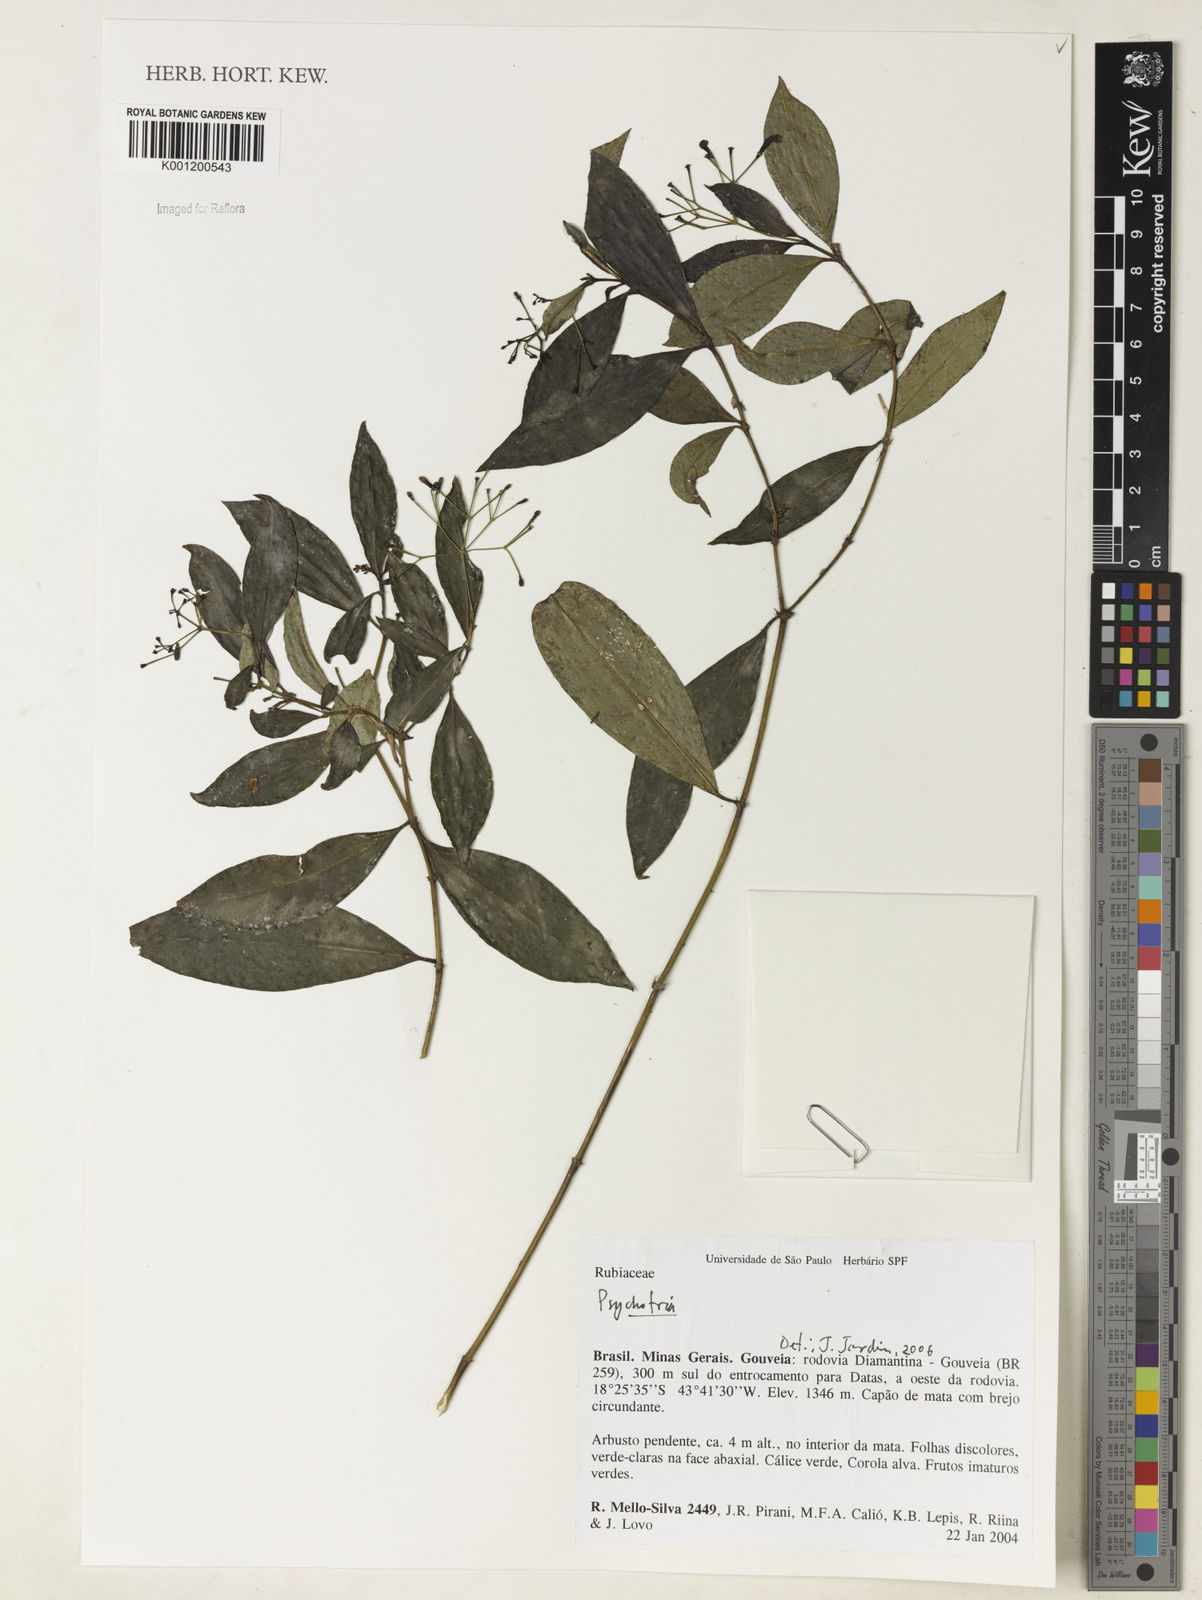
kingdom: Plantae
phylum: Tracheophyta
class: Magnoliopsida
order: Gentianales
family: Rubiaceae
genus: Psychotria
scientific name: Psychotria
